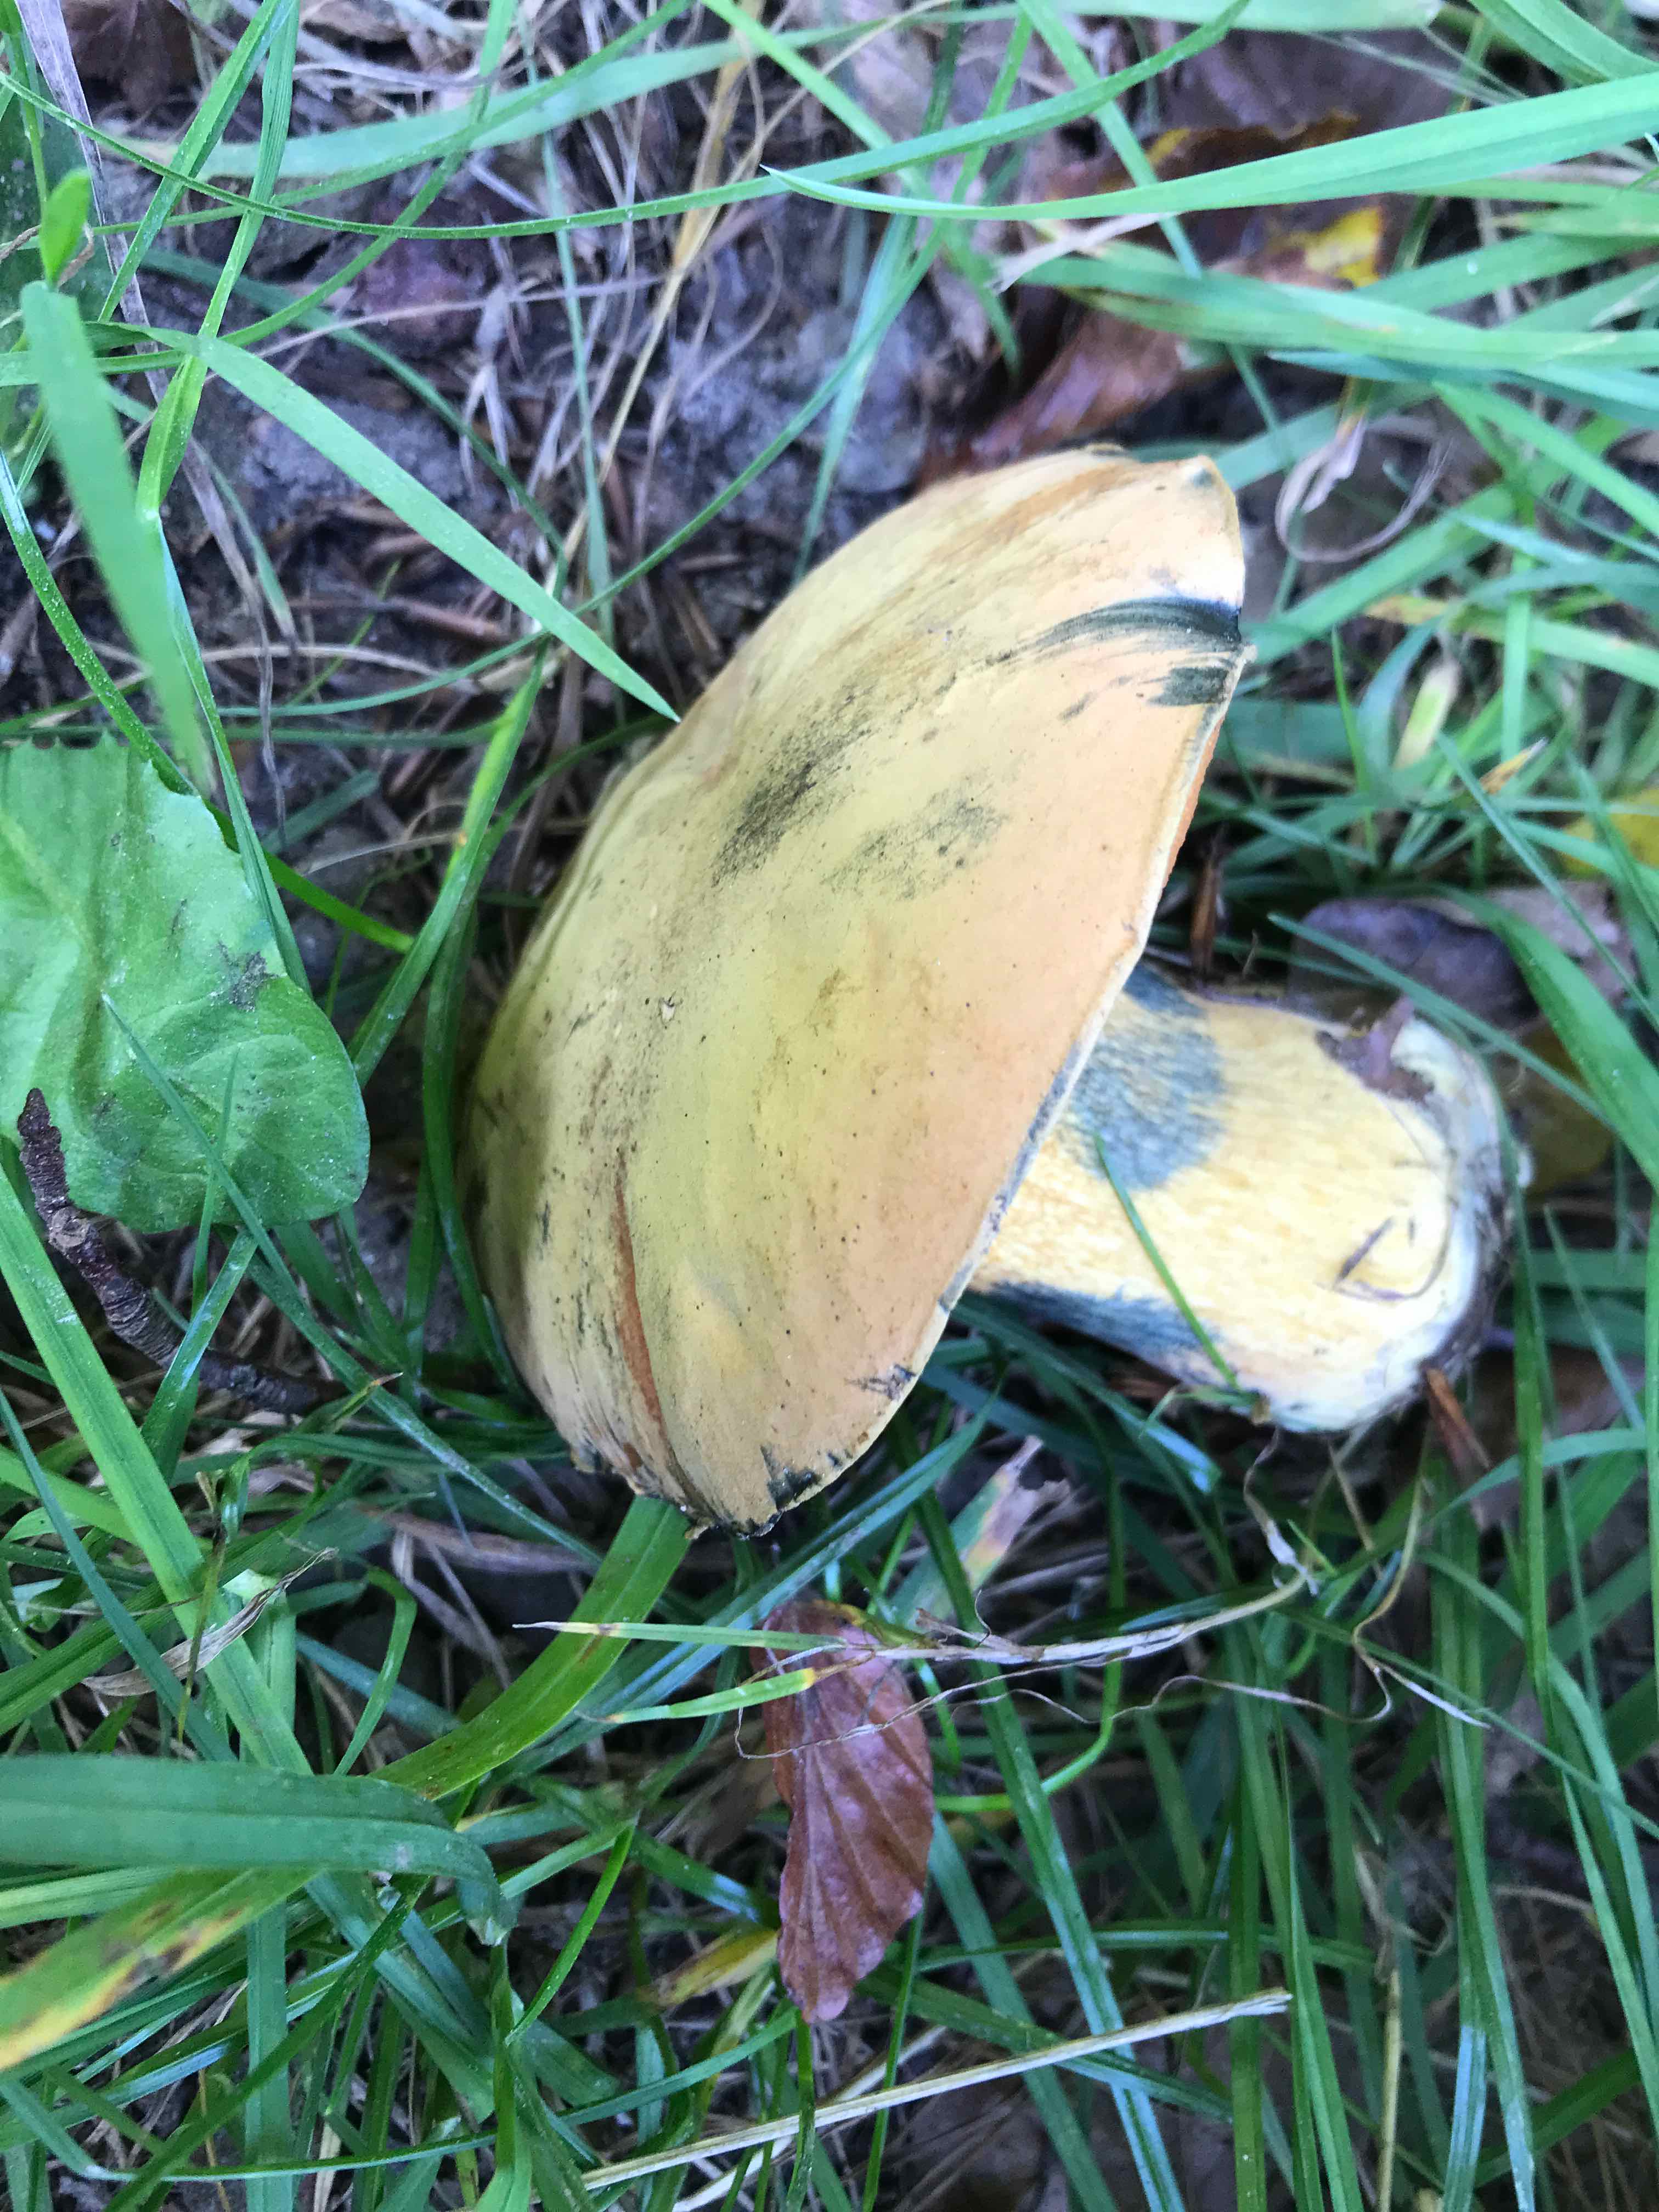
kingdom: Fungi
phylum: Basidiomycota
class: Agaricomycetes
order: Boletales
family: Boletaceae
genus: Suillellus
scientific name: Suillellus luridus
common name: netstokket indigorørhat
